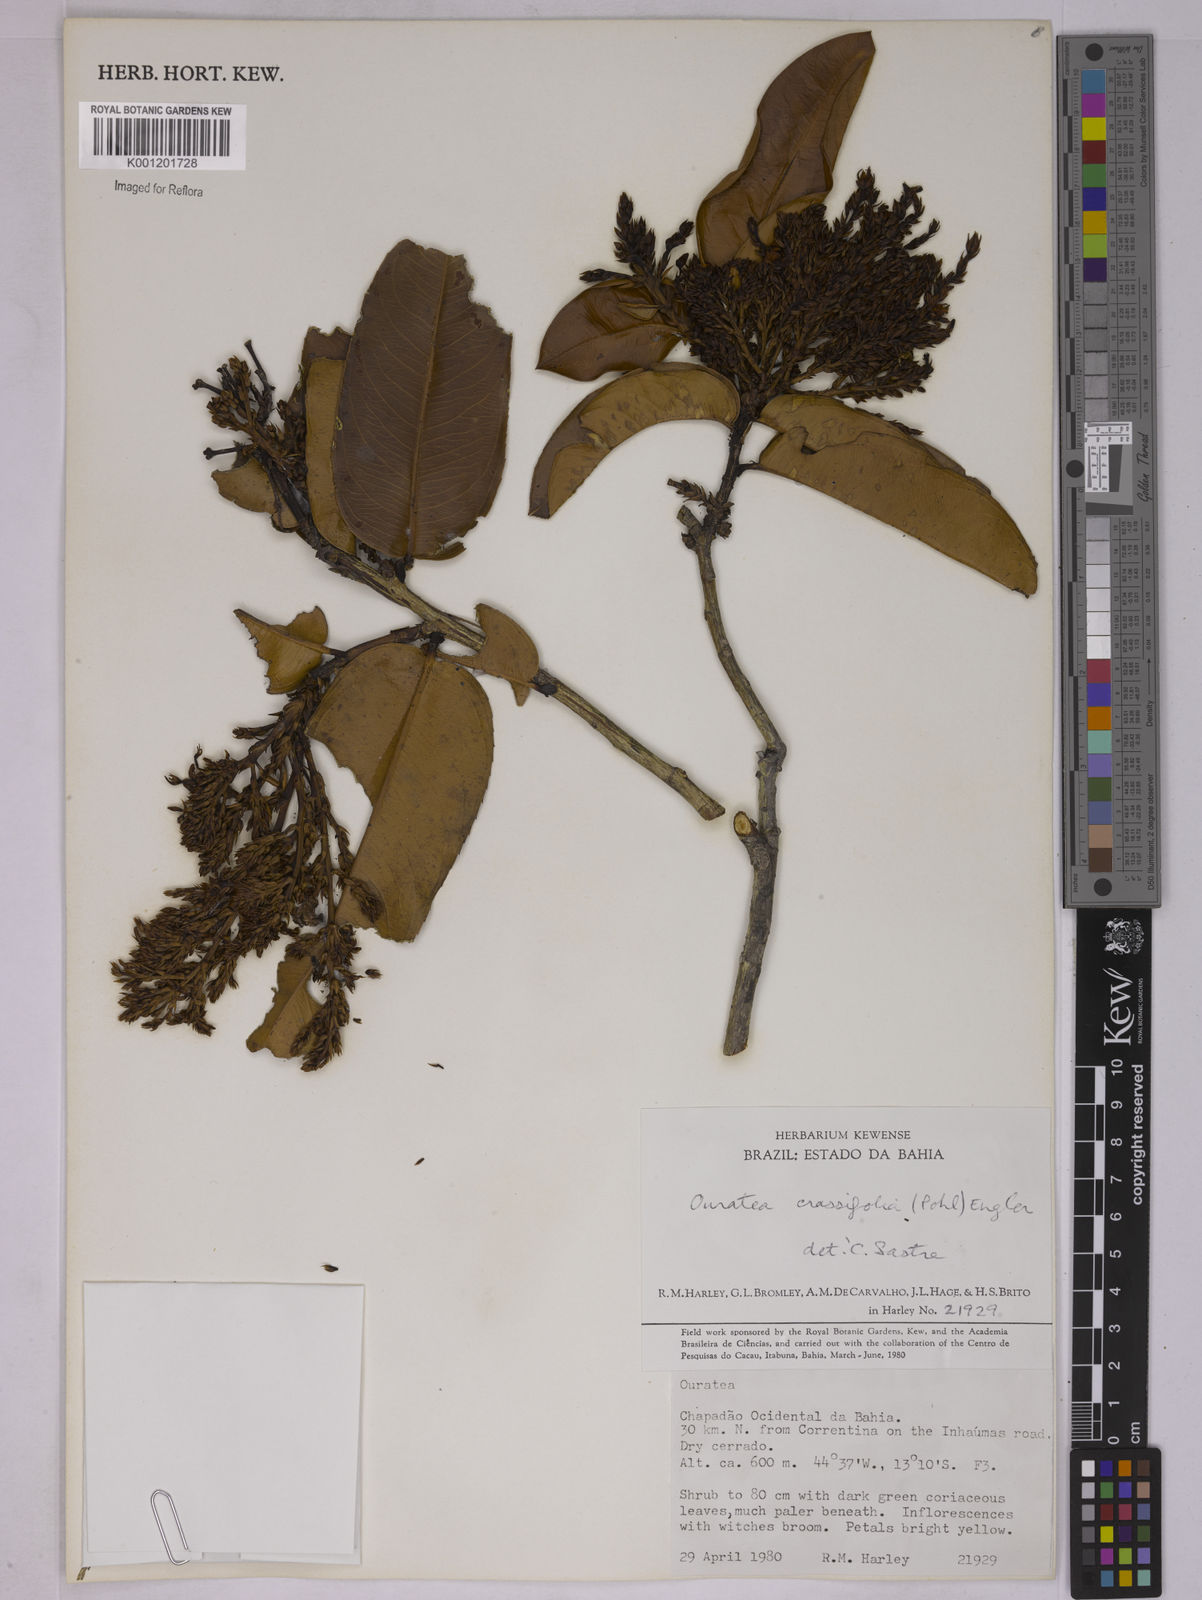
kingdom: Plantae
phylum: Tracheophyta
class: Magnoliopsida
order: Malpighiales
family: Ochnaceae
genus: Ouratea
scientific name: Ouratea crassifolia
